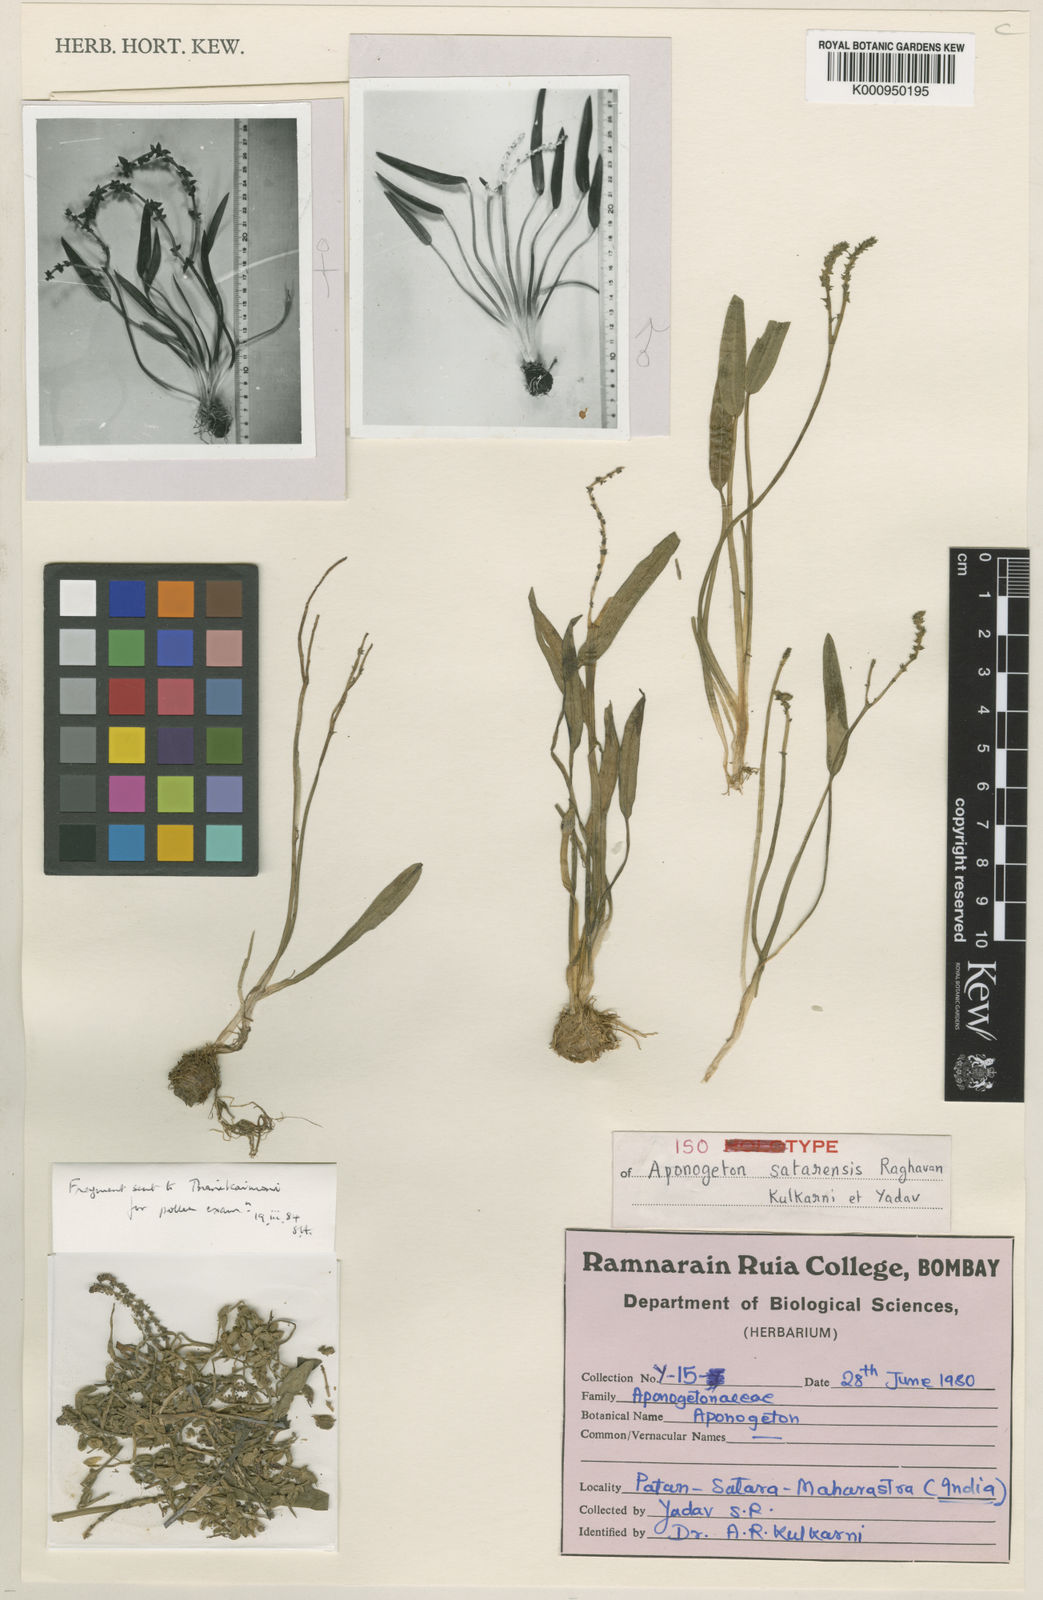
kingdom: Plantae
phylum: Tracheophyta
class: Liliopsida
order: Alismatales
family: Aponogetonaceae
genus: Aponogeton
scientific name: Aponogeton satarensis
